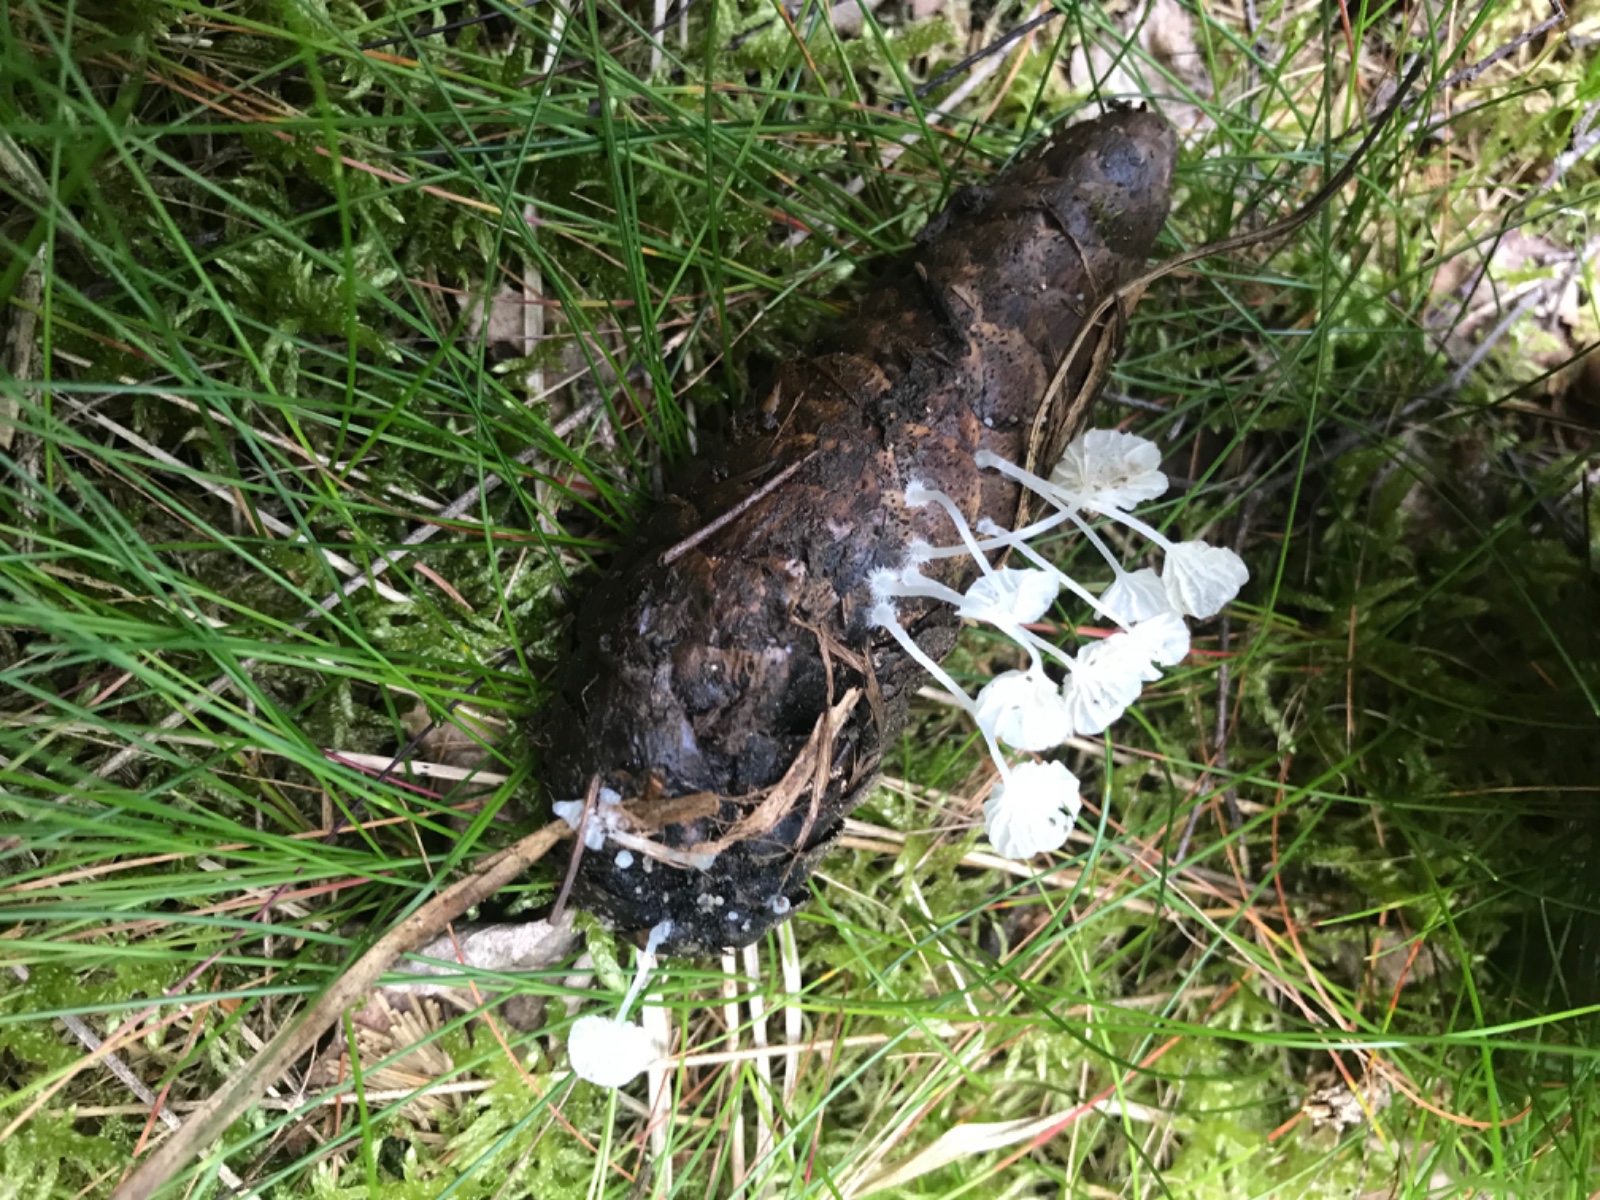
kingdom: Fungi
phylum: Basidiomycota
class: Agaricomycetes
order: Agaricales
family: Mycenaceae
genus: Hemimycena
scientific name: Hemimycena
